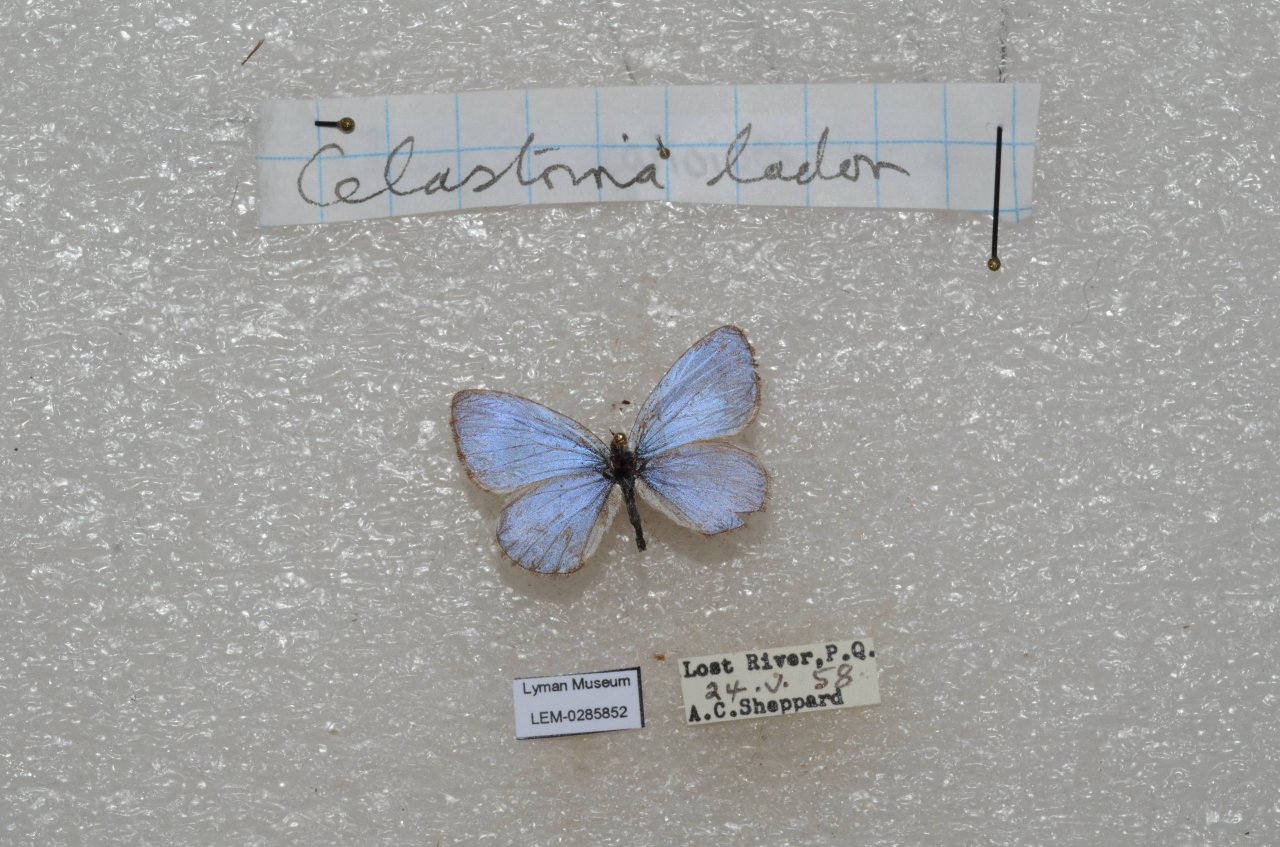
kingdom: Animalia
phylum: Arthropoda
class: Insecta
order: Lepidoptera
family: Lycaenidae
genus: Celastrina
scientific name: Celastrina lucia
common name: Northern Spring Azure
